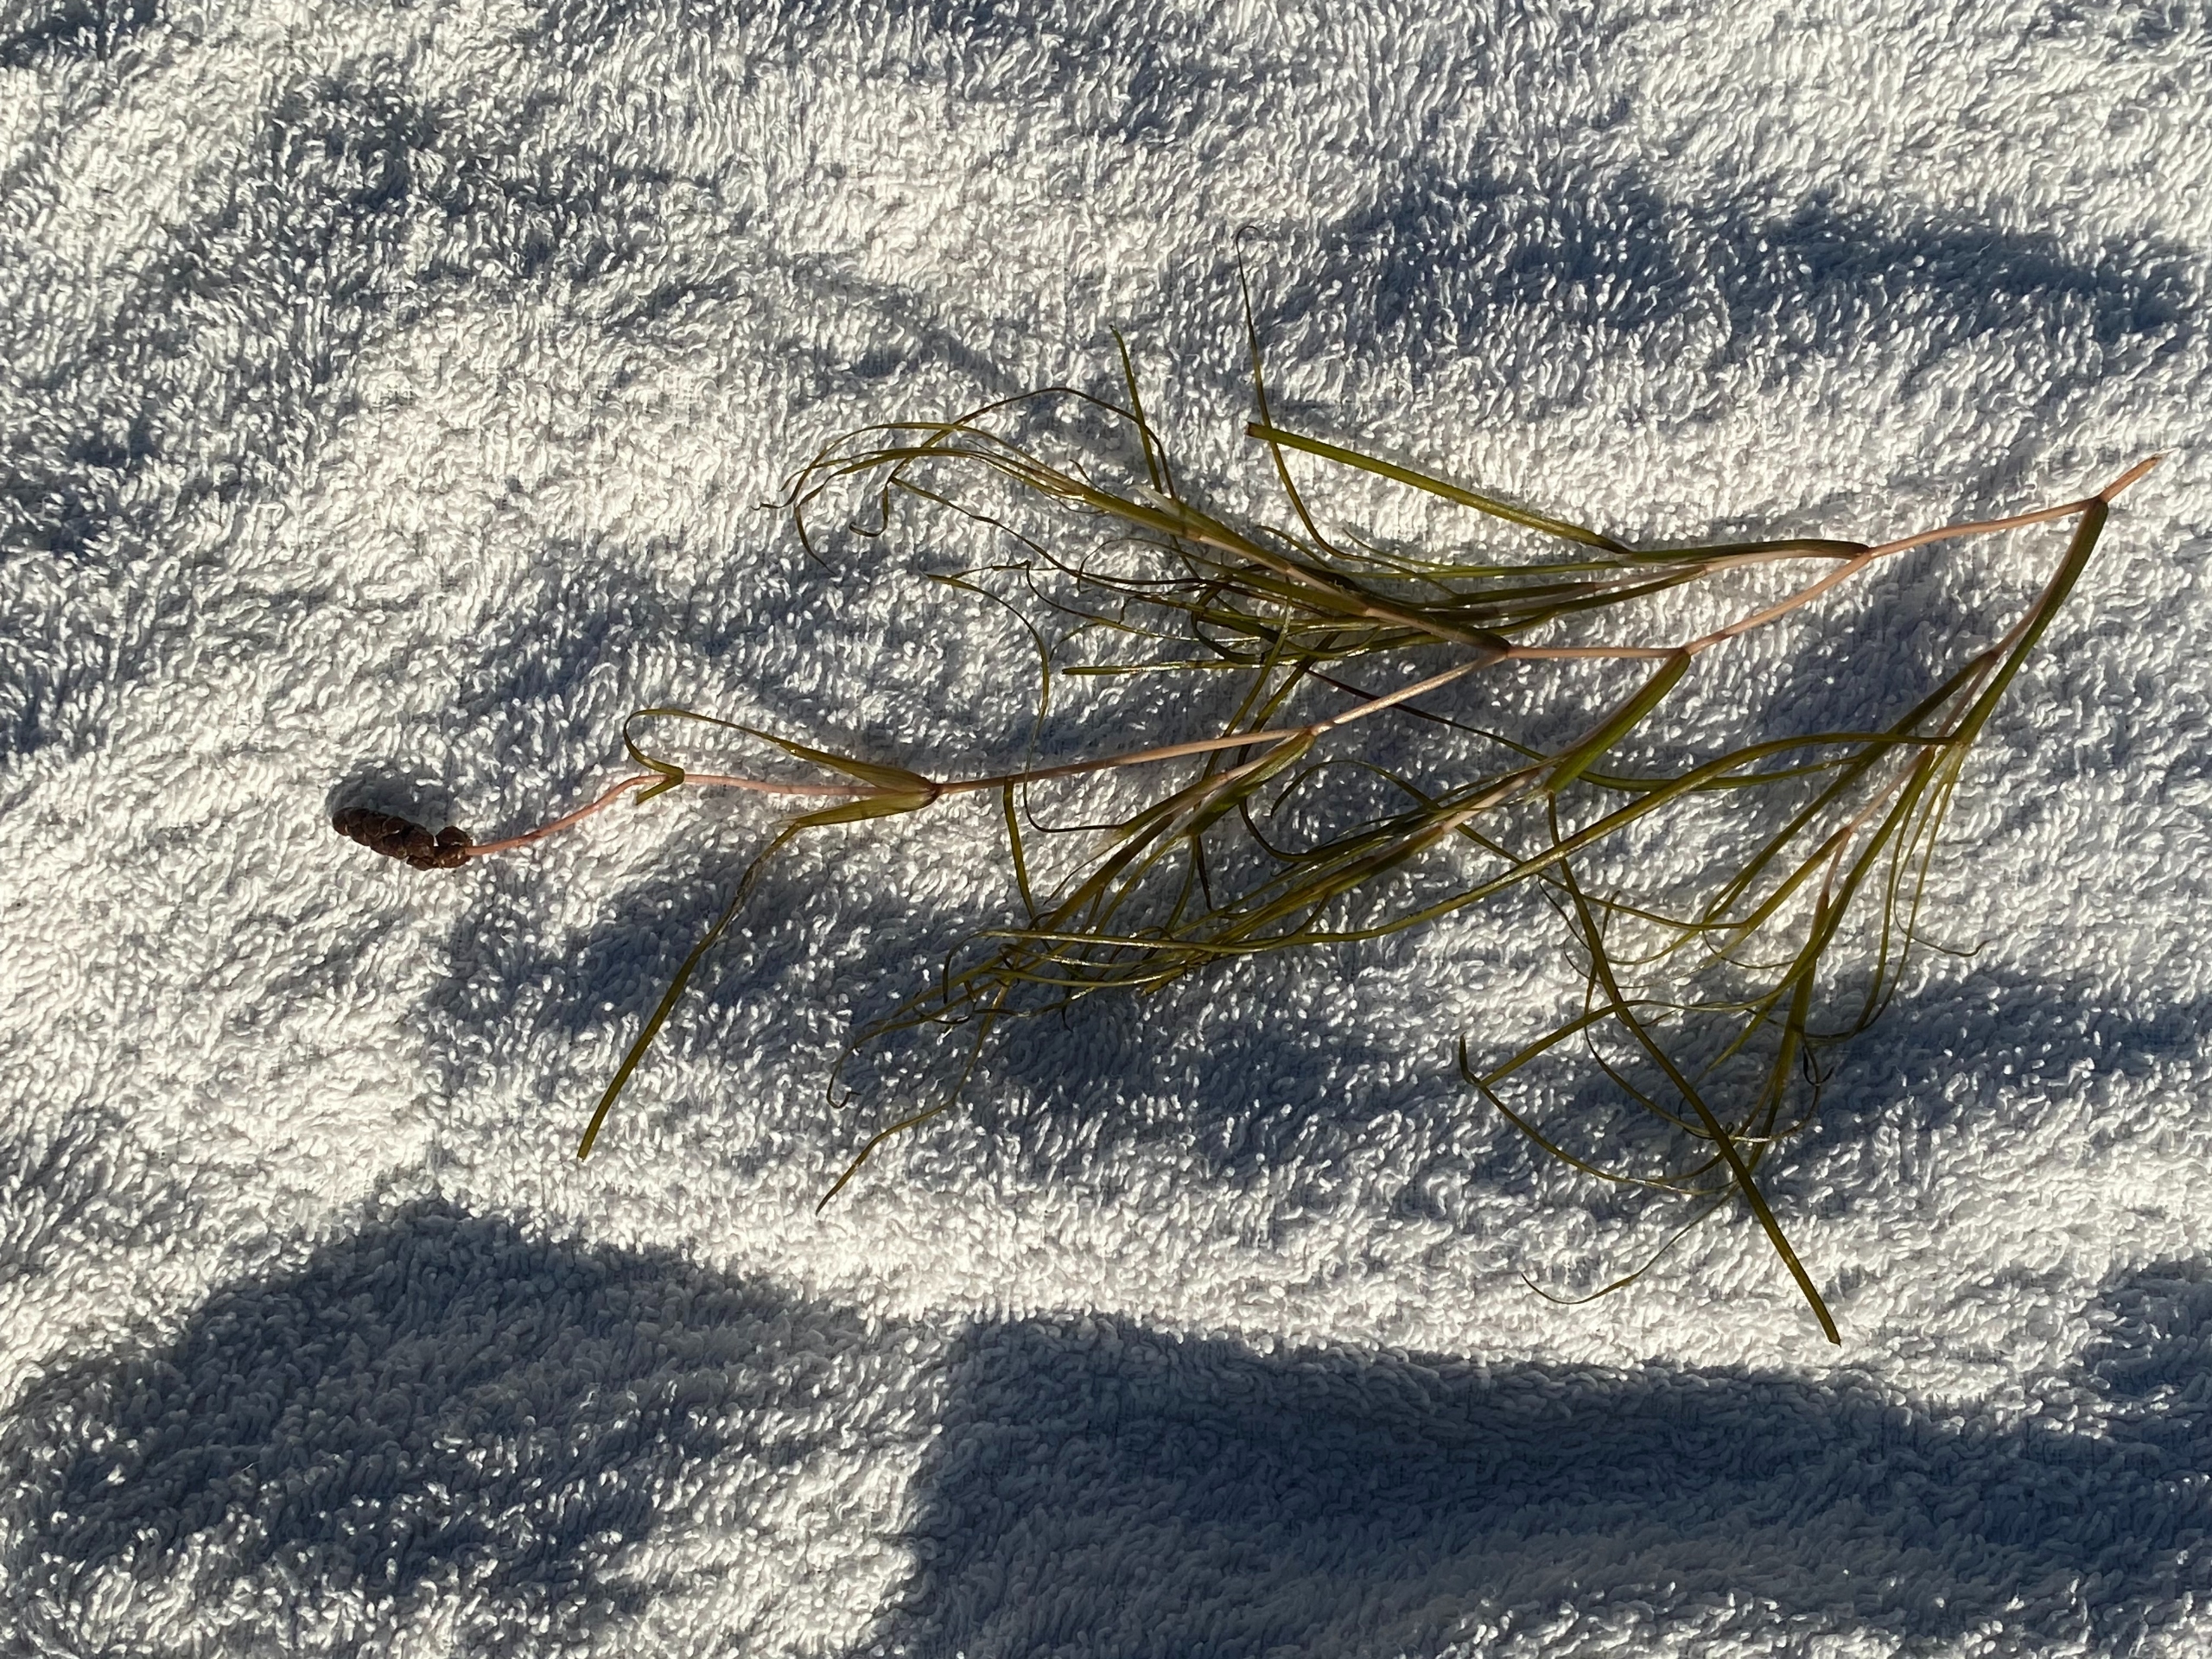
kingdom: Plantae
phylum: Tracheophyta
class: Liliopsida
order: Alismatales
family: Potamogetonaceae
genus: Stuckenia
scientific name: Stuckenia pectinata
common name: Børstebladet vandaks
